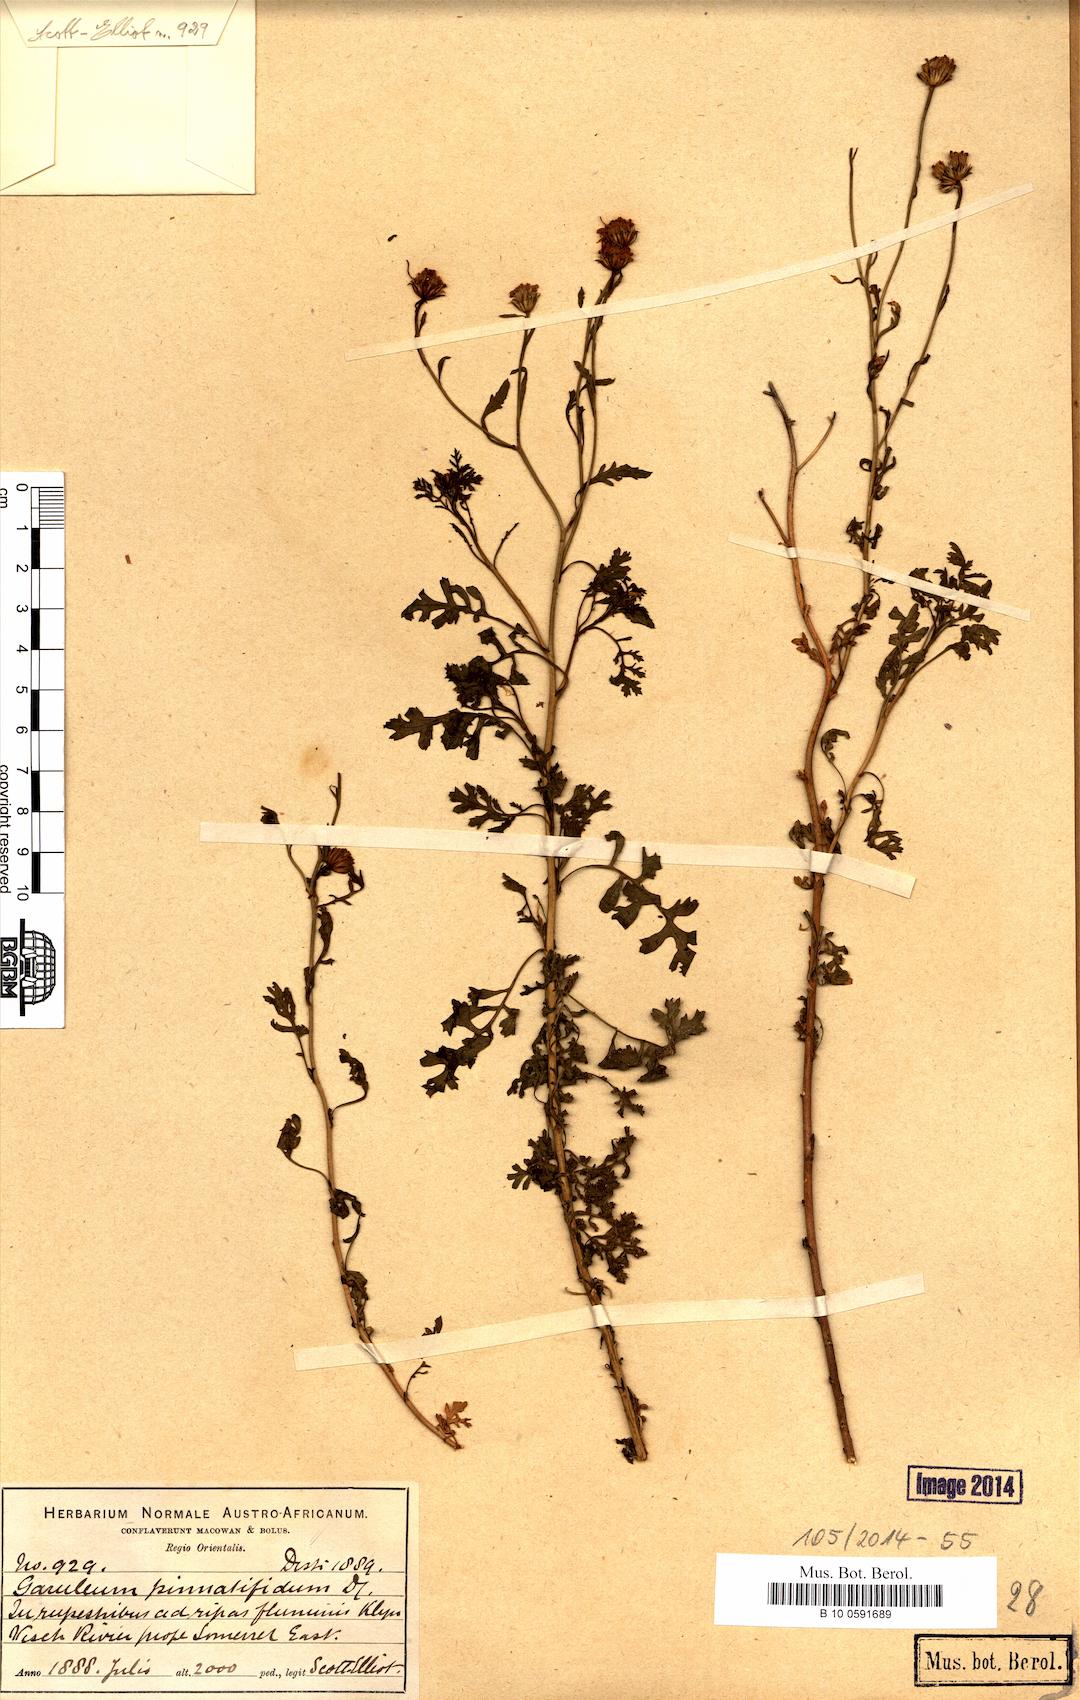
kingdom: Plantae
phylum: Tracheophyta
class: Magnoliopsida
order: Asterales
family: Asteraceae
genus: Garuleum
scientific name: Garuleum pinnatifidum
